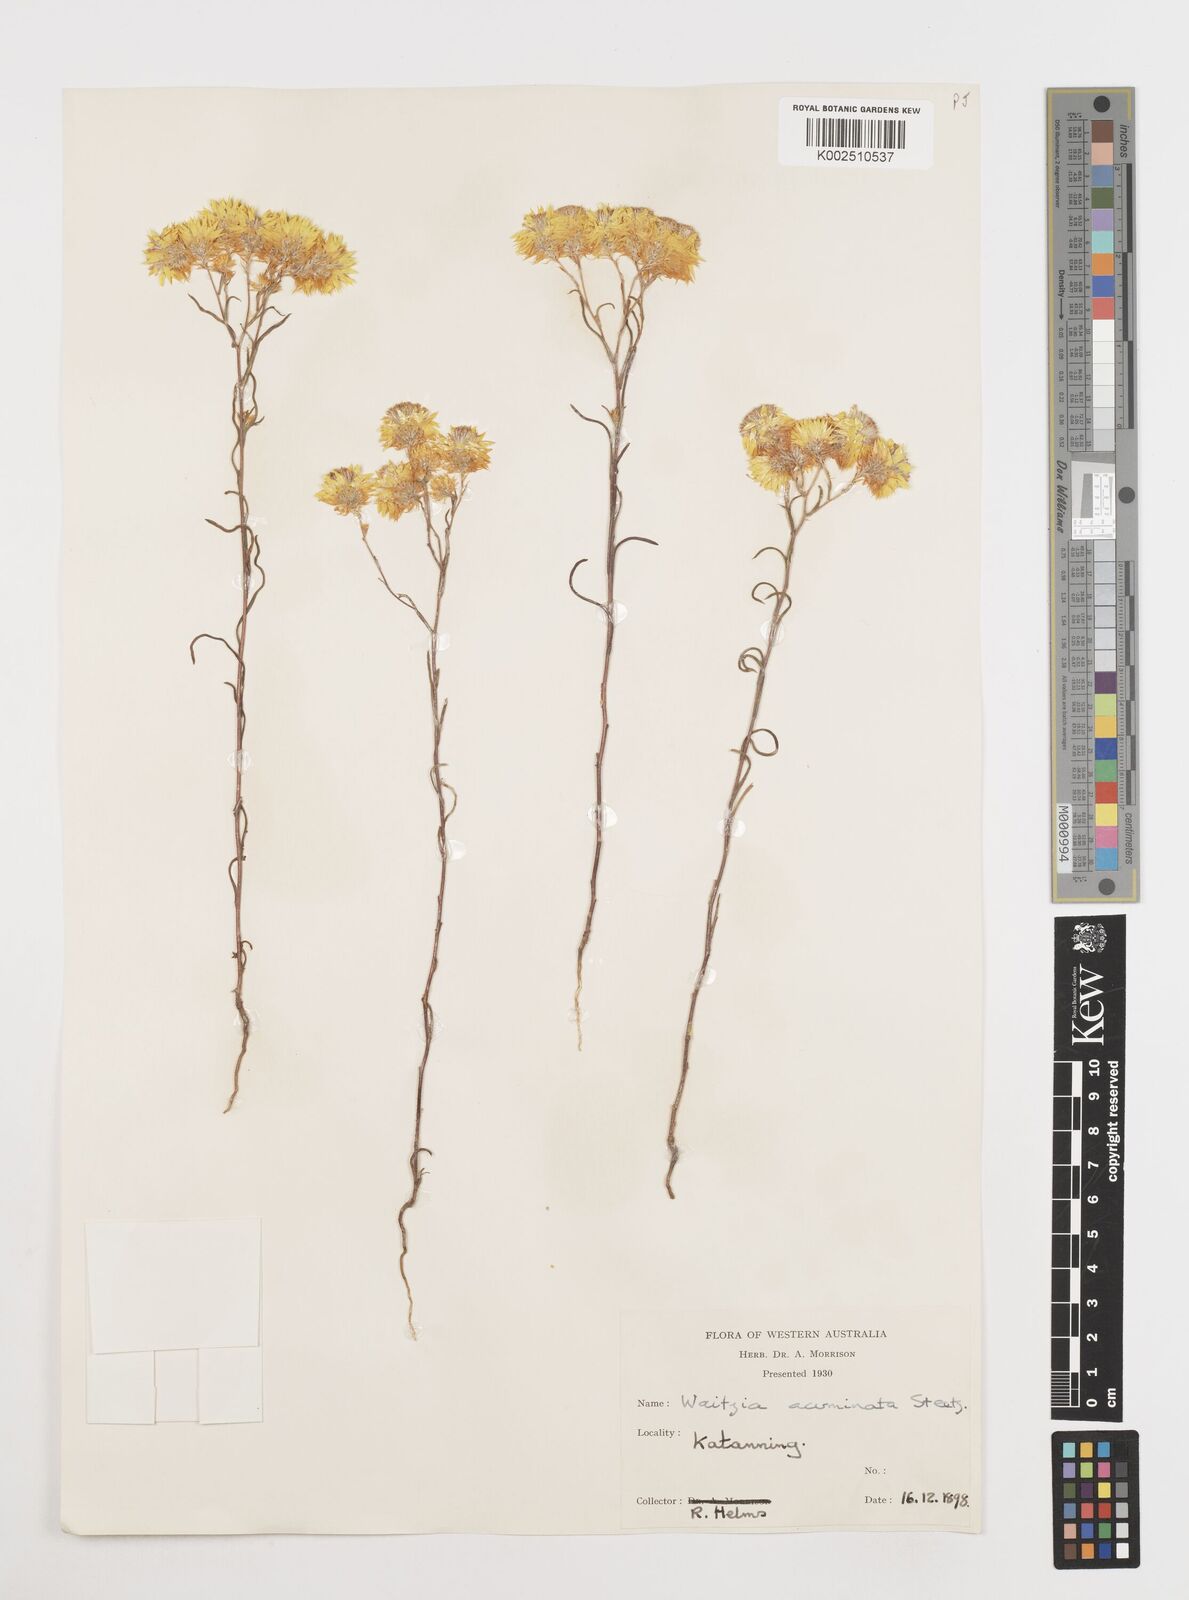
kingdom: Plantae
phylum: Tracheophyta
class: Magnoliopsida
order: Asterales
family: Asteraceae
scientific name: Asteraceae
